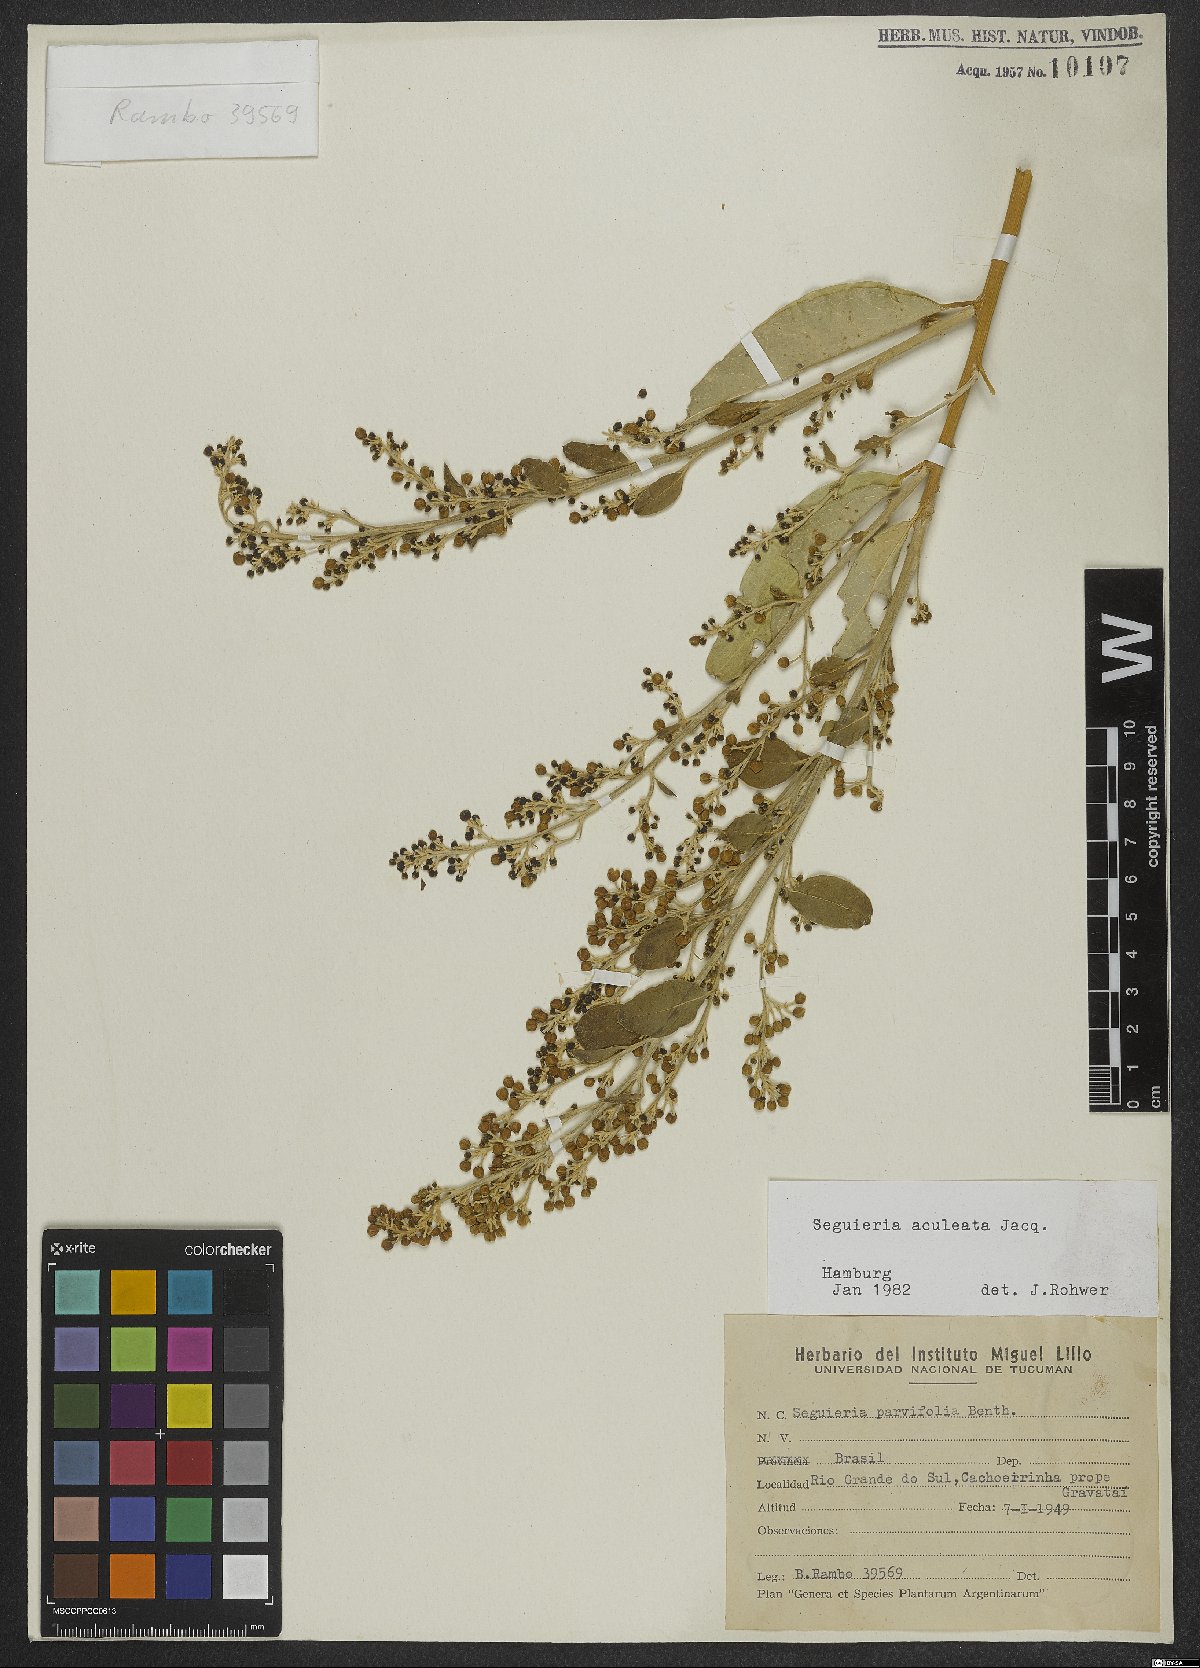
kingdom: Plantae
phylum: Tracheophyta
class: Magnoliopsida
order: Caryophyllales
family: Phytolaccaceae
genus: Seguieria
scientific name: Seguieria aculeata
